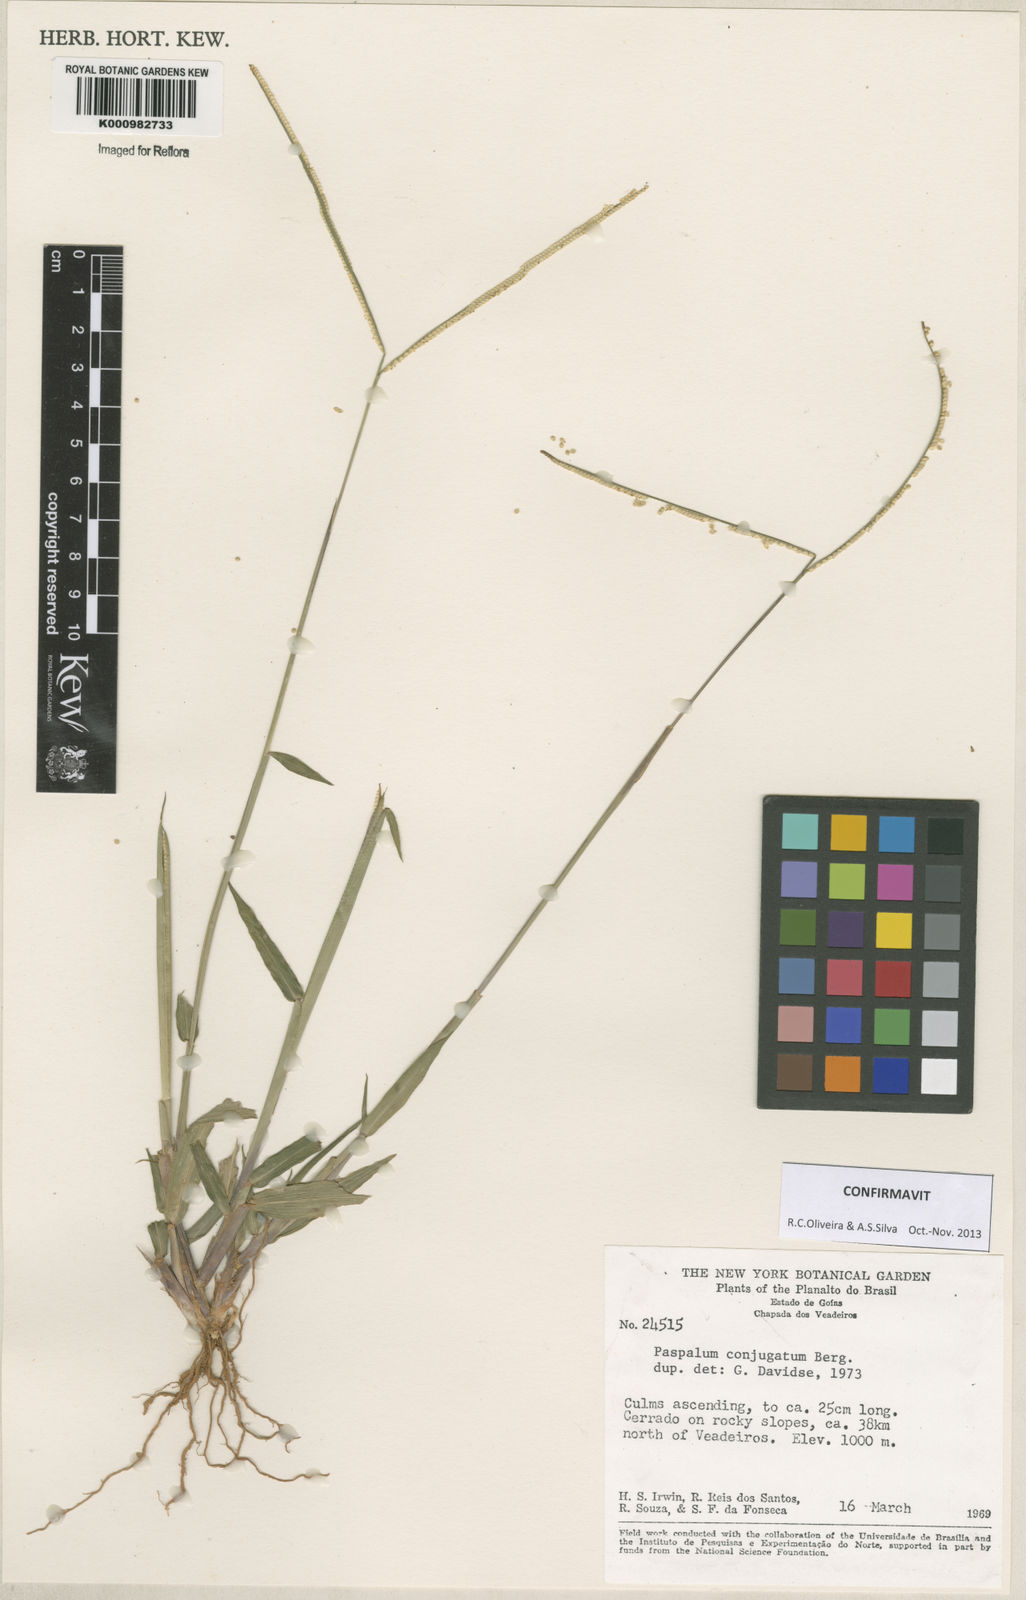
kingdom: Plantae
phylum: Tracheophyta
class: Liliopsida
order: Poales
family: Poaceae
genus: Paspalum
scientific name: Paspalum conjugatum
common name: Hilograss
